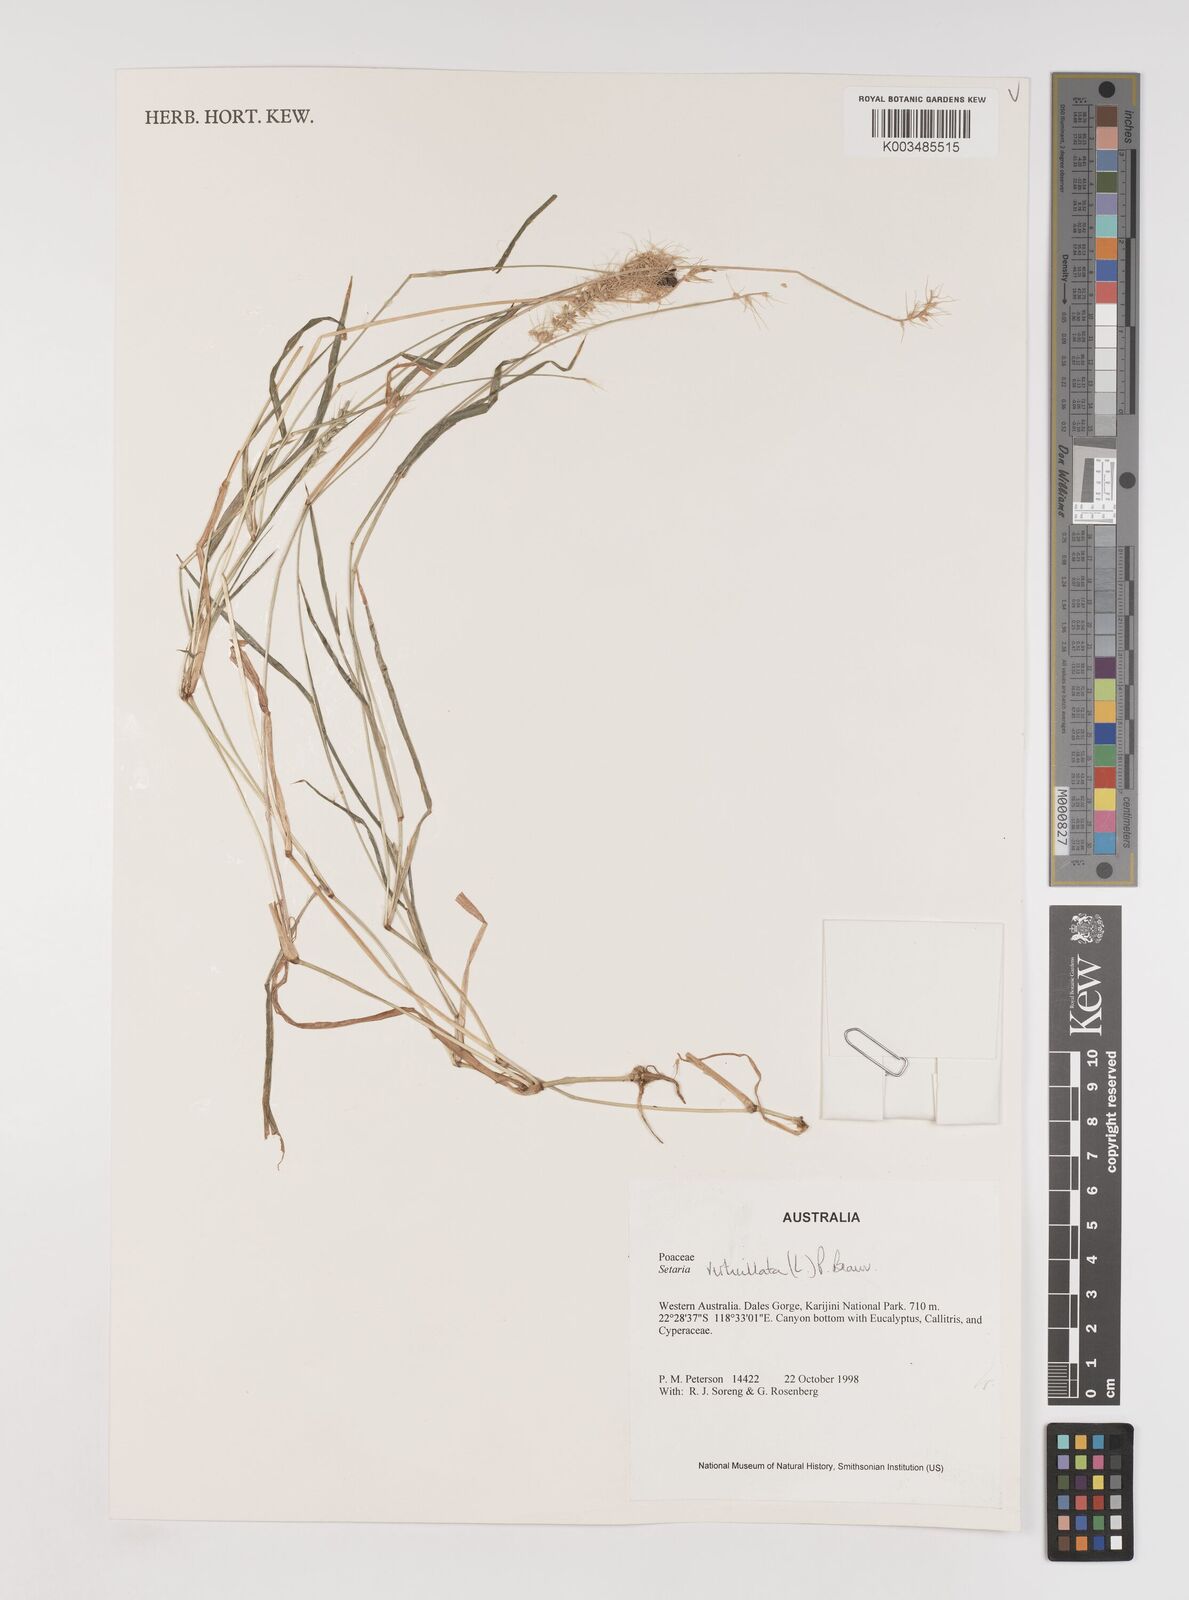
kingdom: Plantae
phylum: Tracheophyta
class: Liliopsida
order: Poales
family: Poaceae
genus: Setaria
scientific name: Setaria verticillata
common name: Hooked bristlegrass
